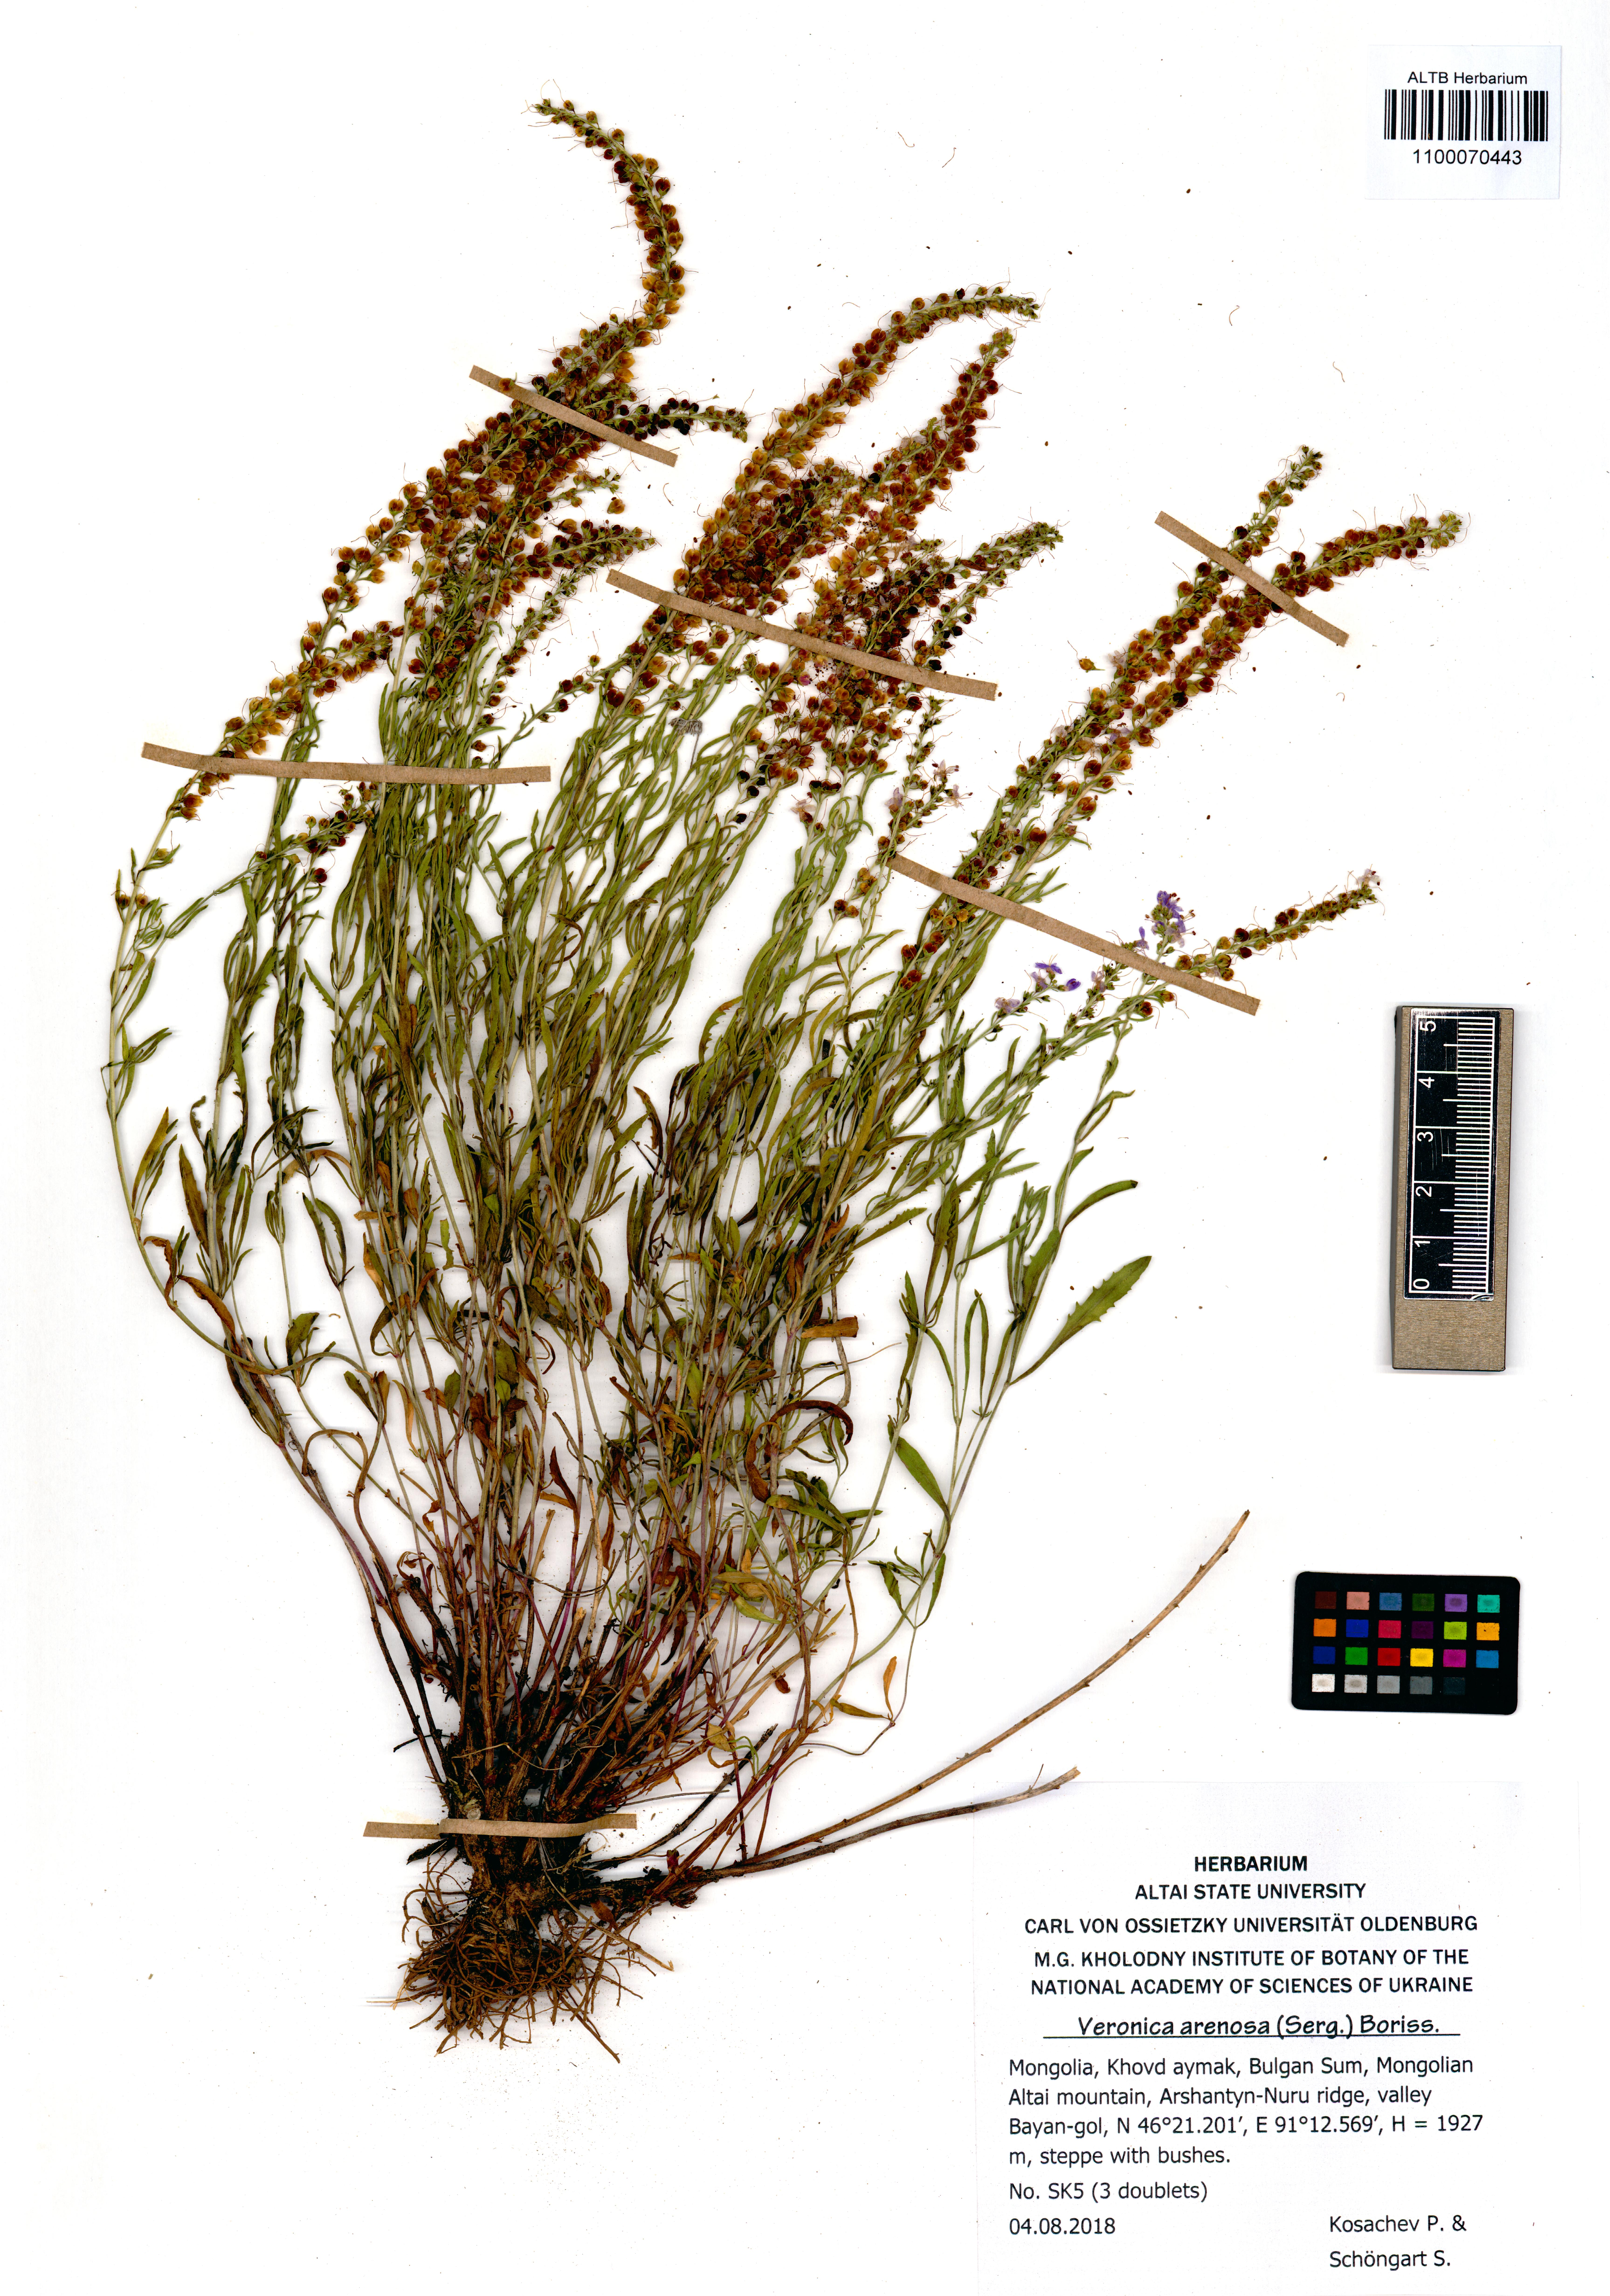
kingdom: Plantae
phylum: Tracheophyta
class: Magnoliopsida
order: Lamiales
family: Plantaginaceae
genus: Veronica
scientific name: Veronica arenosa
